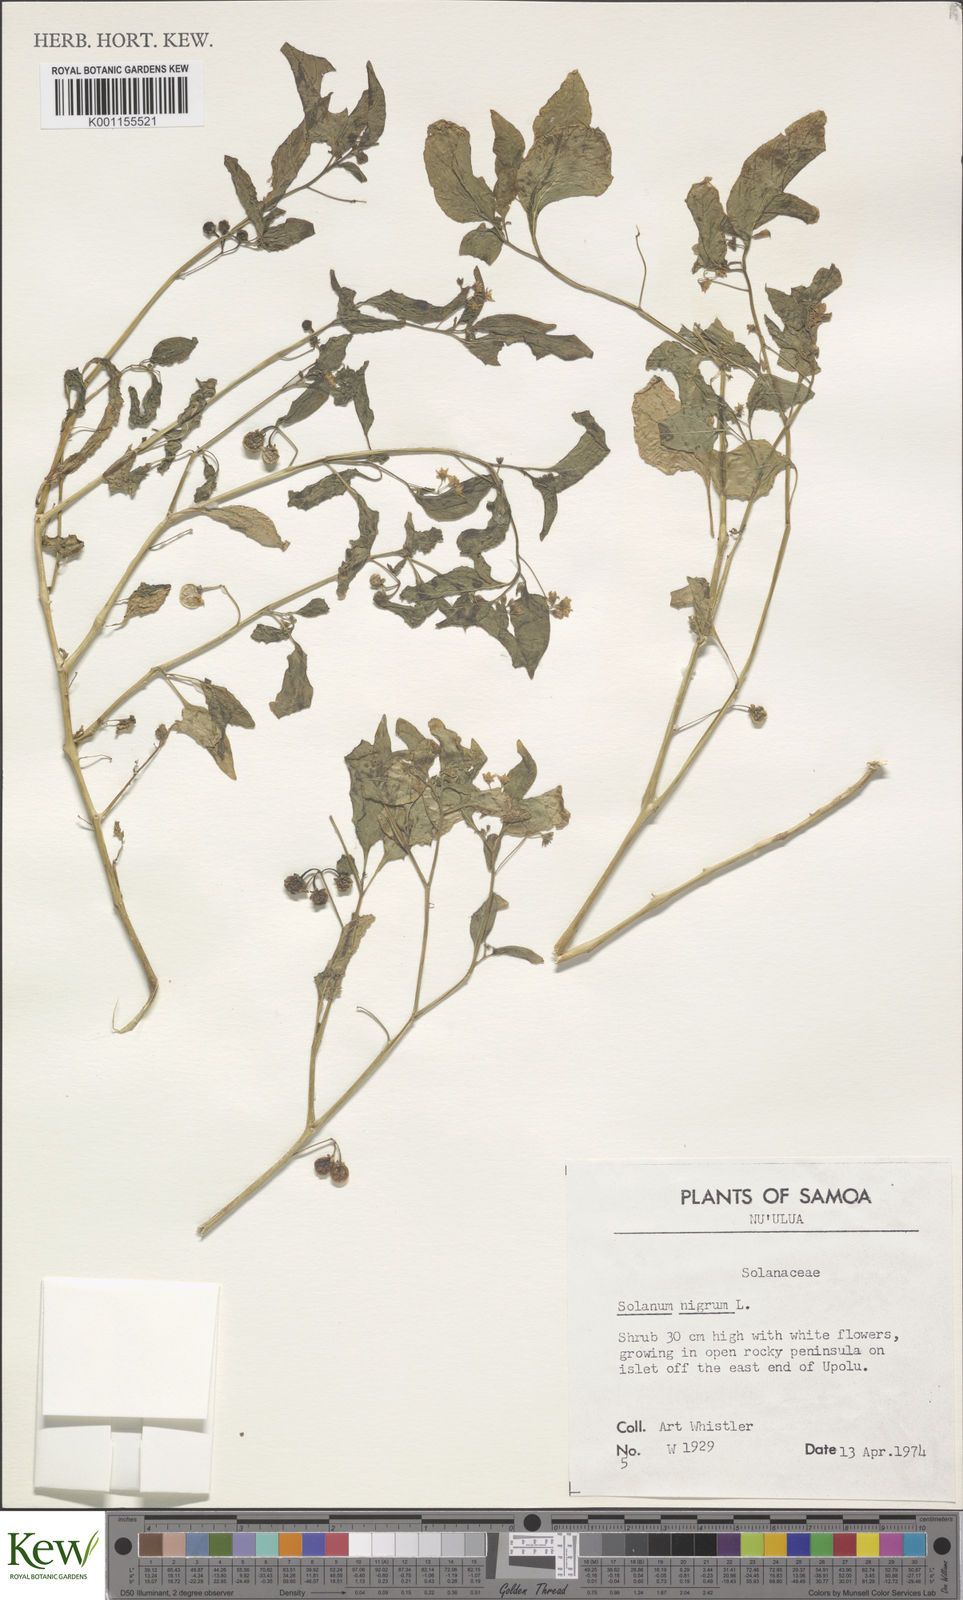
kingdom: Plantae
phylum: Tracheophyta
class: Magnoliopsida
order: Solanales
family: Solanaceae
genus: Solanum
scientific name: Solanum americanum
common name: American black nightshade
